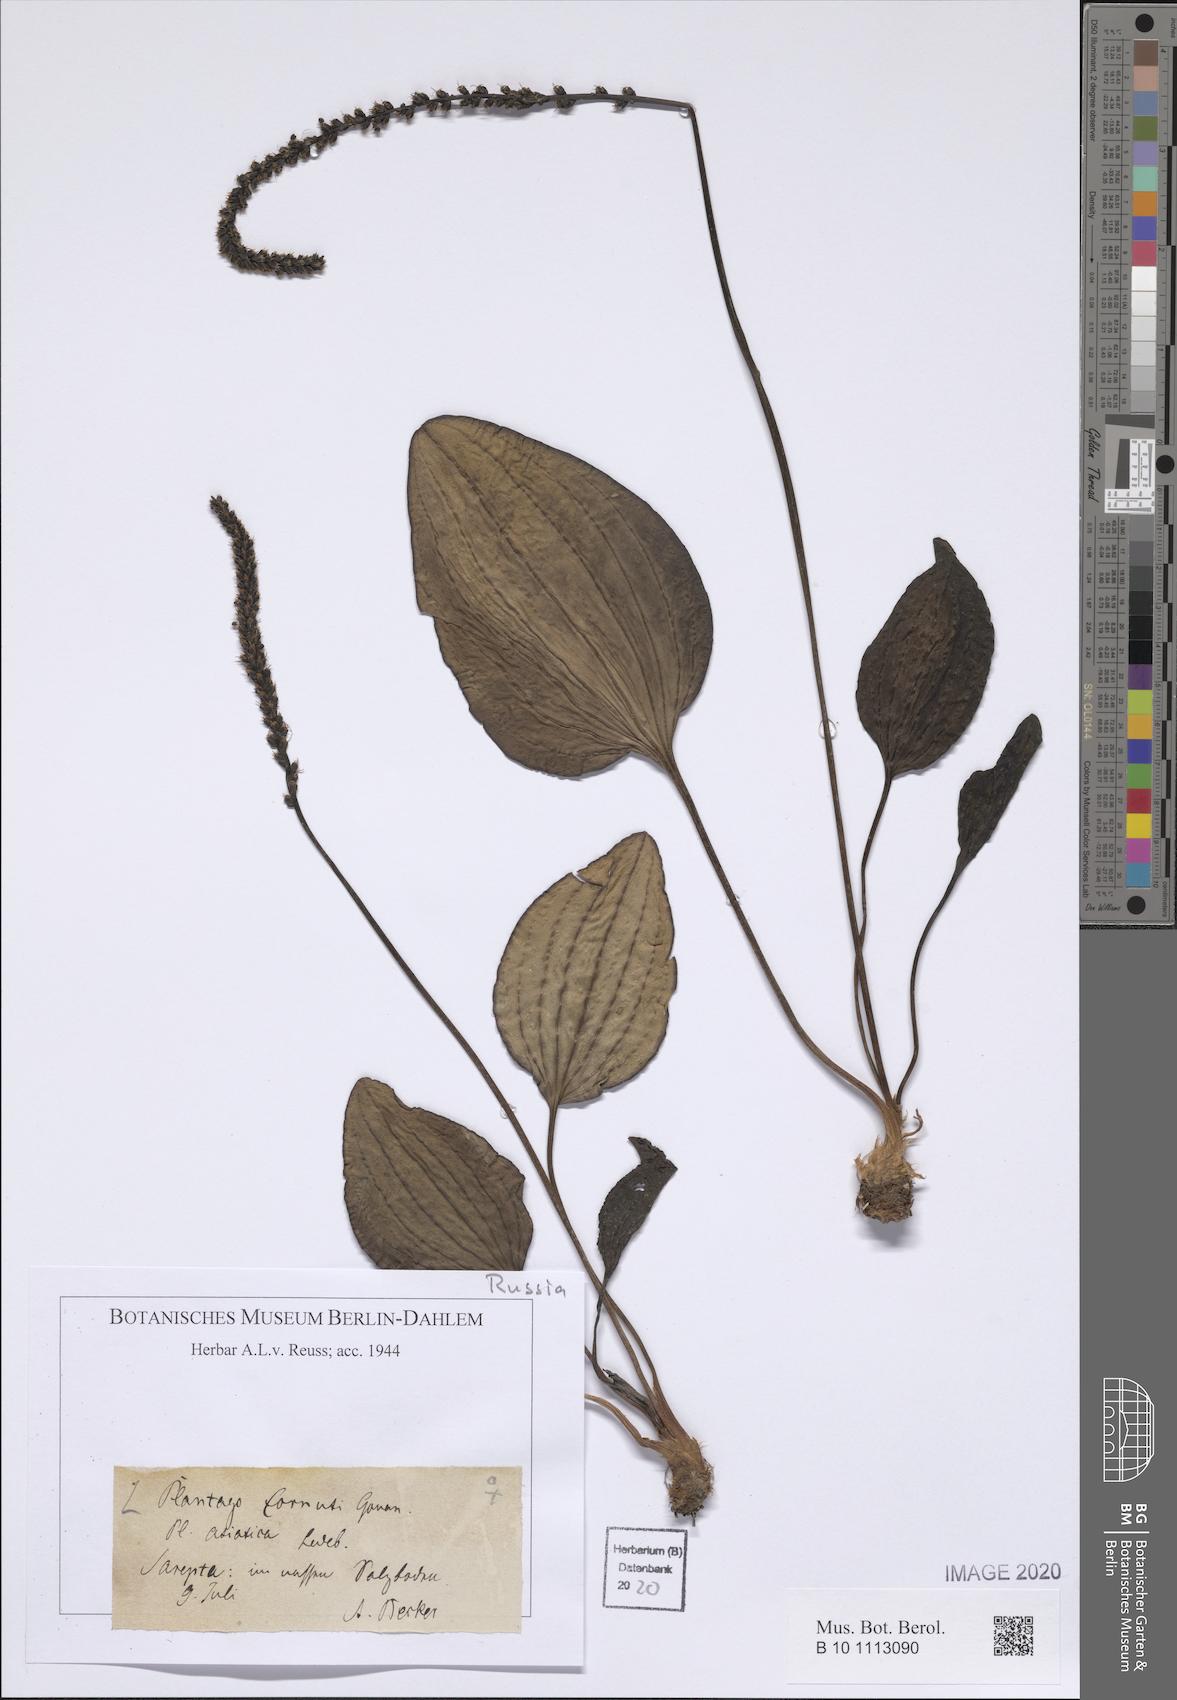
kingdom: Plantae
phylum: Tracheophyta
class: Magnoliopsida
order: Lamiales
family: Plantaginaceae
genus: Plantago
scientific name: Plantago cornuti
